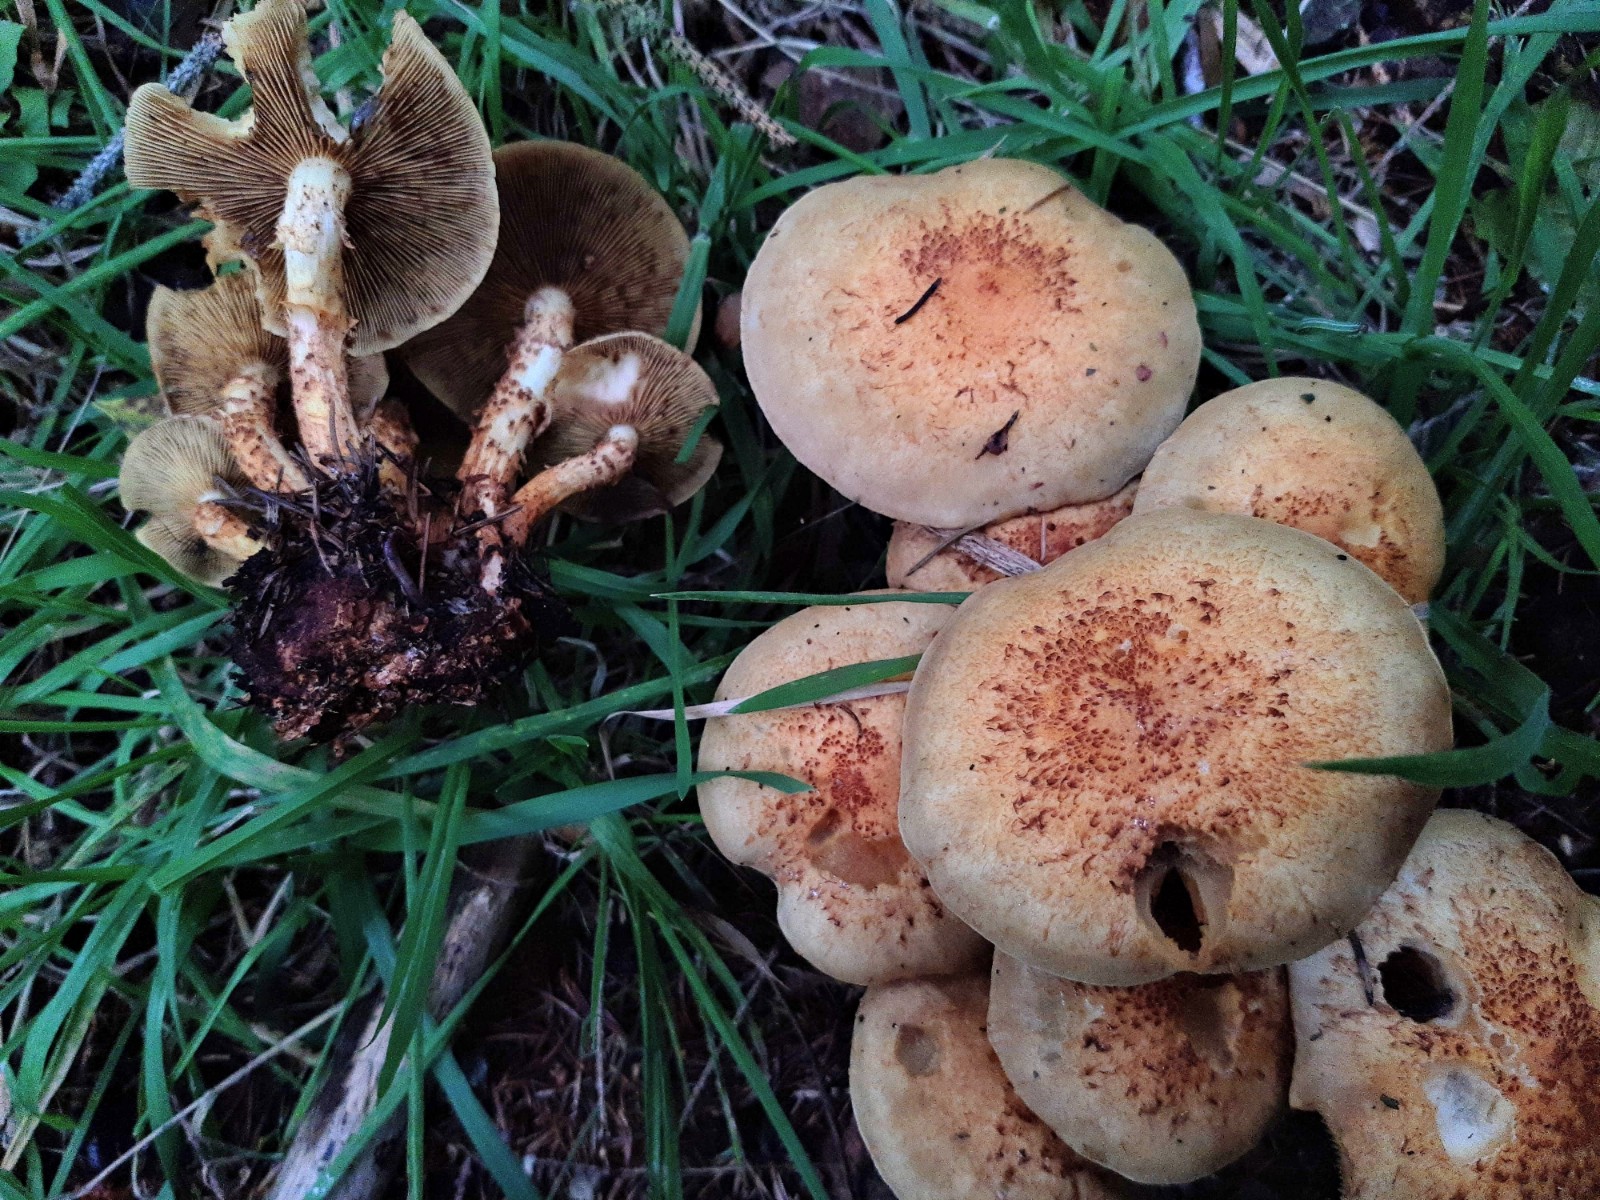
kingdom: Fungi
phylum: Basidiomycota
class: Agaricomycetes
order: Agaricales
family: Strophariaceae
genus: Pholiota
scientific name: Pholiota squarrosa
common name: krumskællet skælhat
